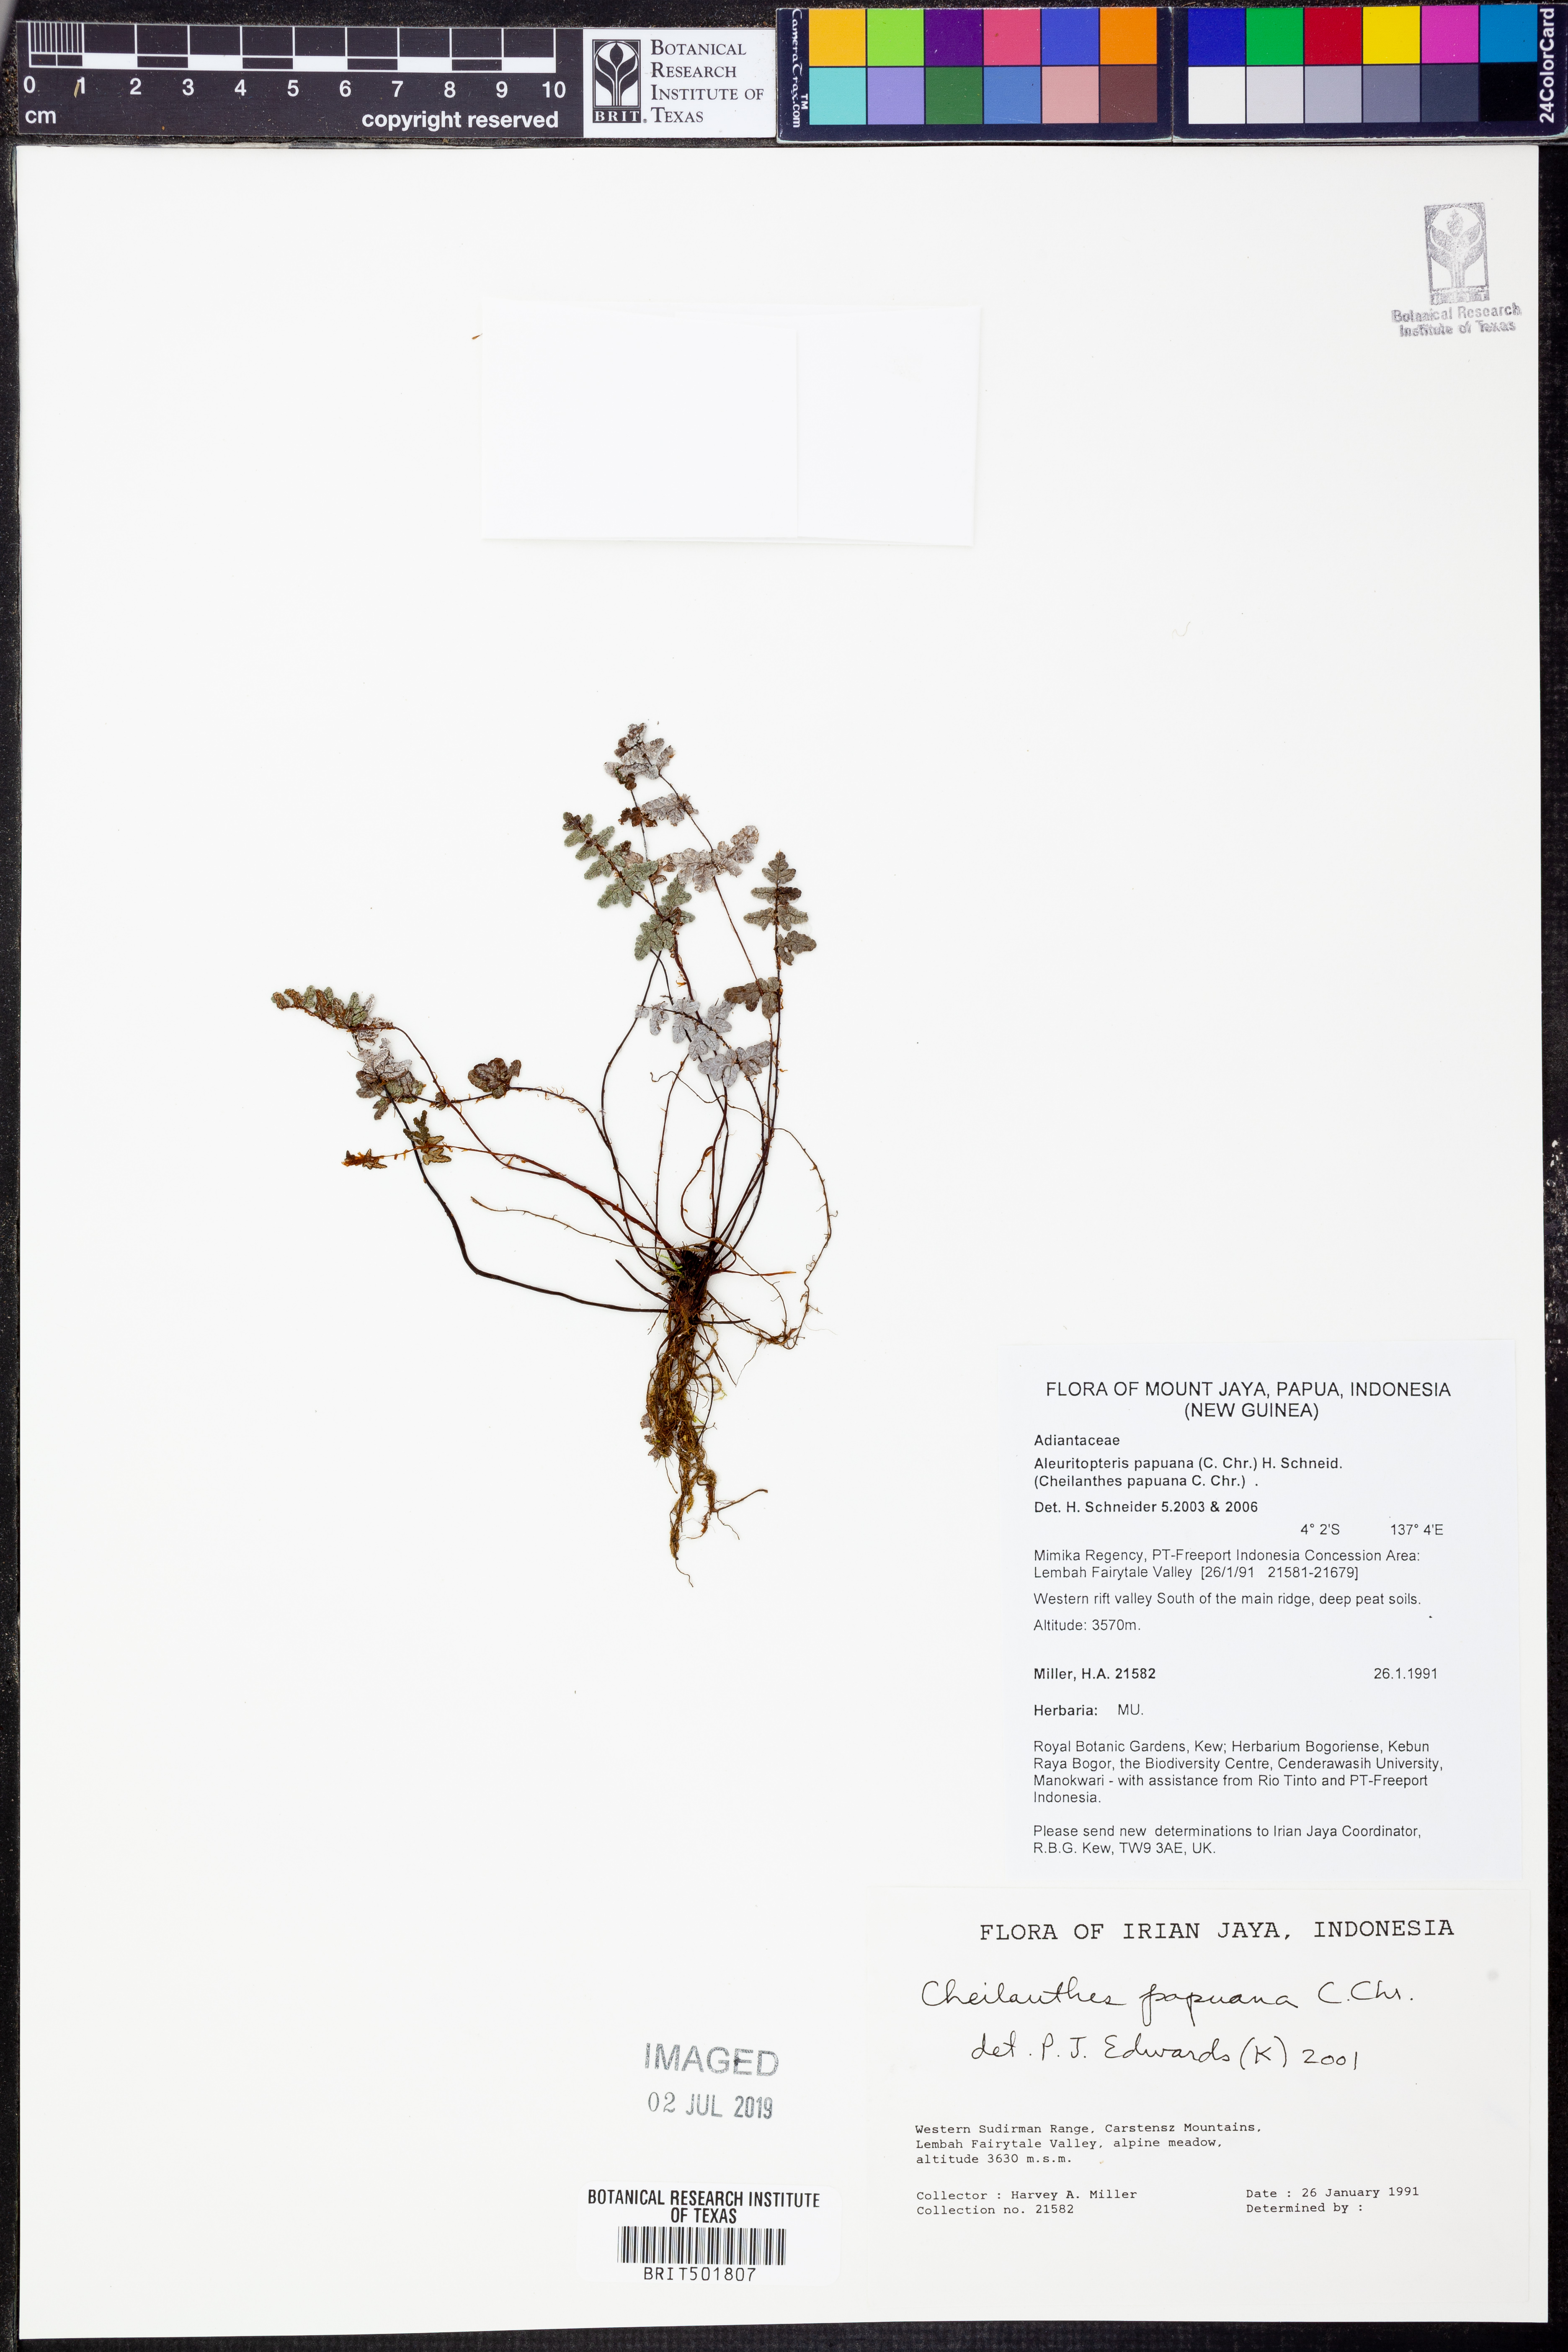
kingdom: Plantae
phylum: Tracheophyta
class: Polypodiopsida
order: Polypodiales
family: Pteridaceae
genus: Aleuritopteris
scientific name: Aleuritopteris papuana
